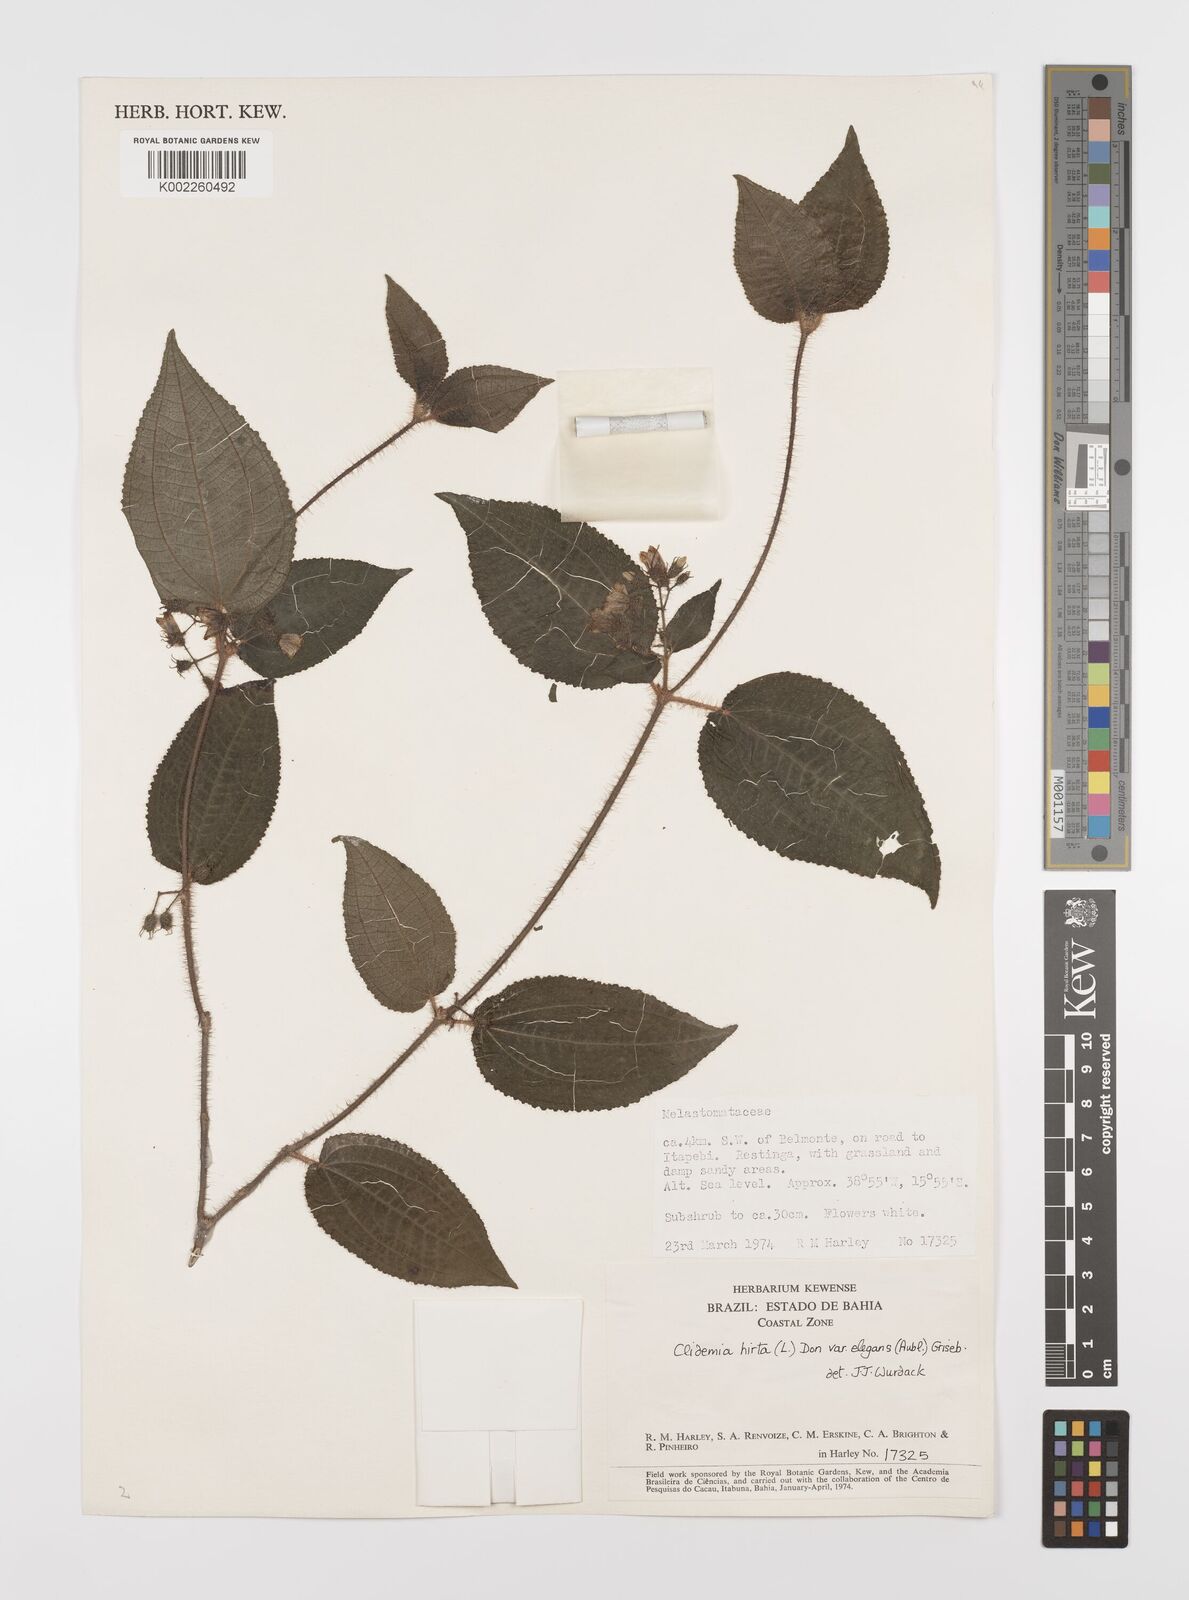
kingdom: Plantae
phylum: Tracheophyta
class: Magnoliopsida
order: Myrtales
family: Melastomataceae
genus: Miconia
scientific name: Miconia crenata
